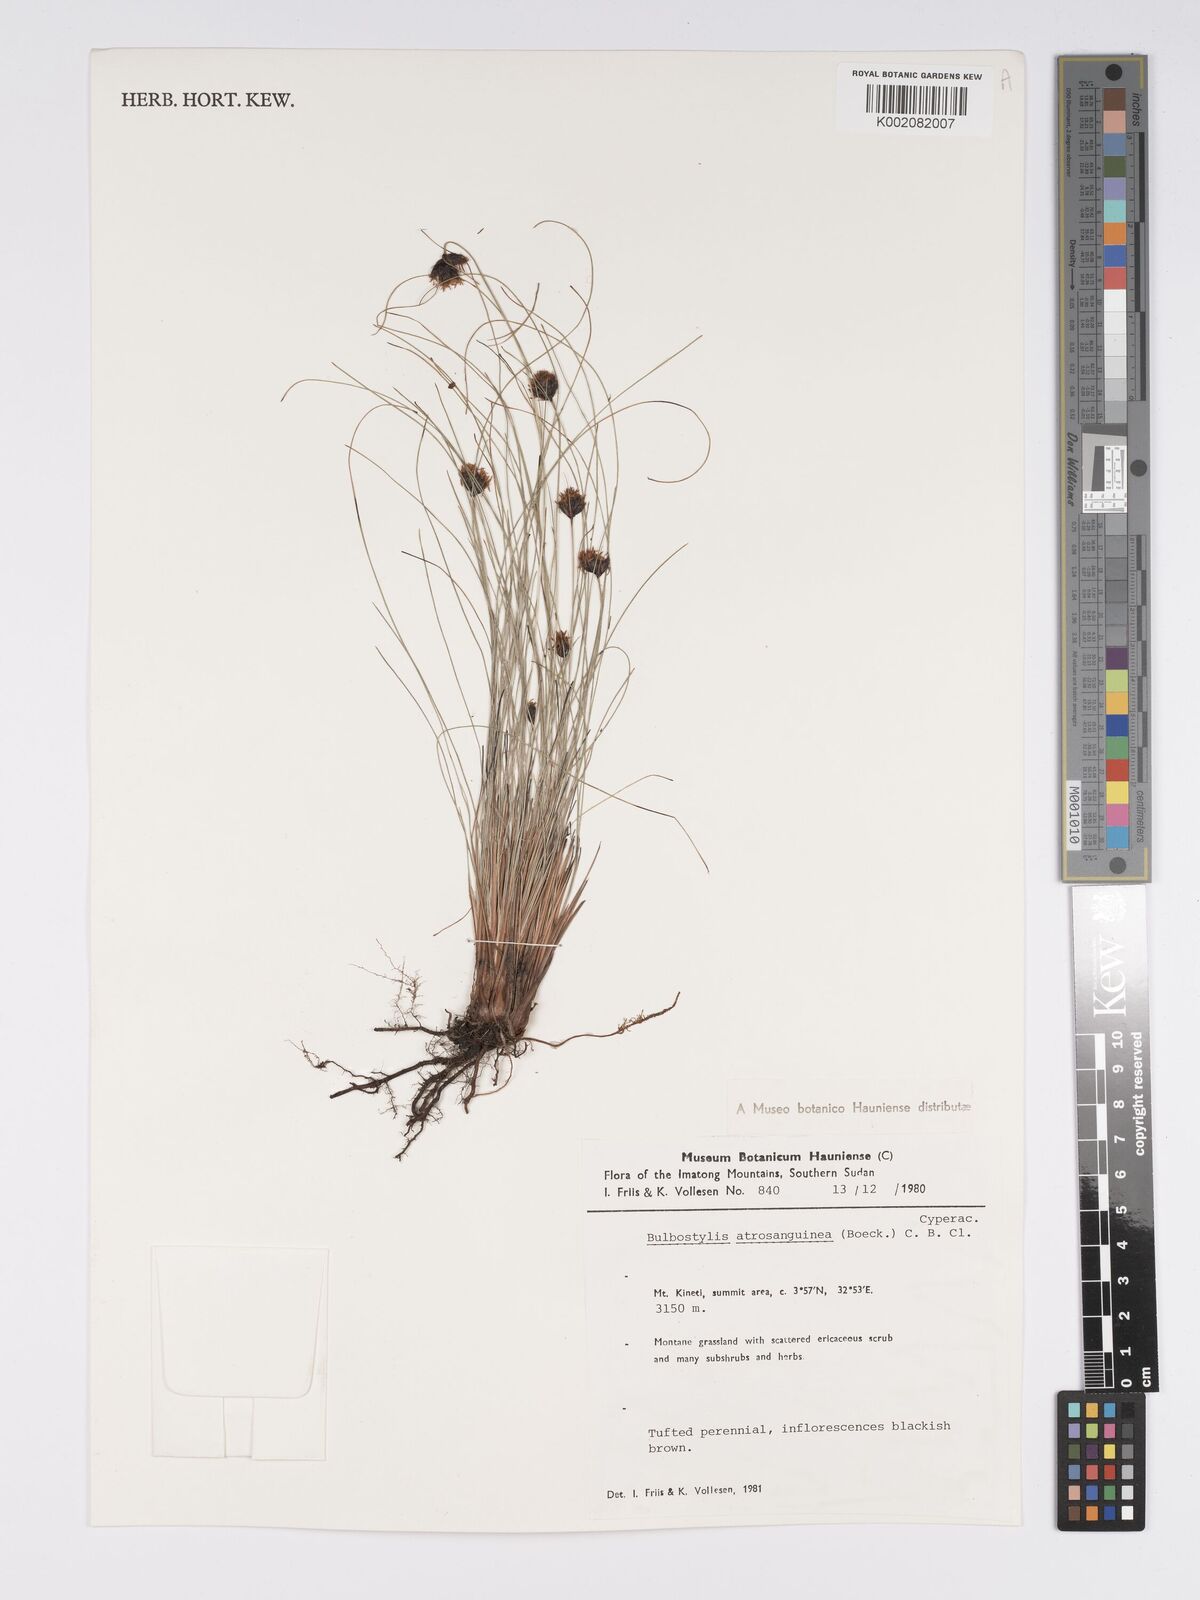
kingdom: Plantae
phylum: Tracheophyta
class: Liliopsida
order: Poales
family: Cyperaceae
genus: Bulbostylis
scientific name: Bulbostylis atrosanguinea
